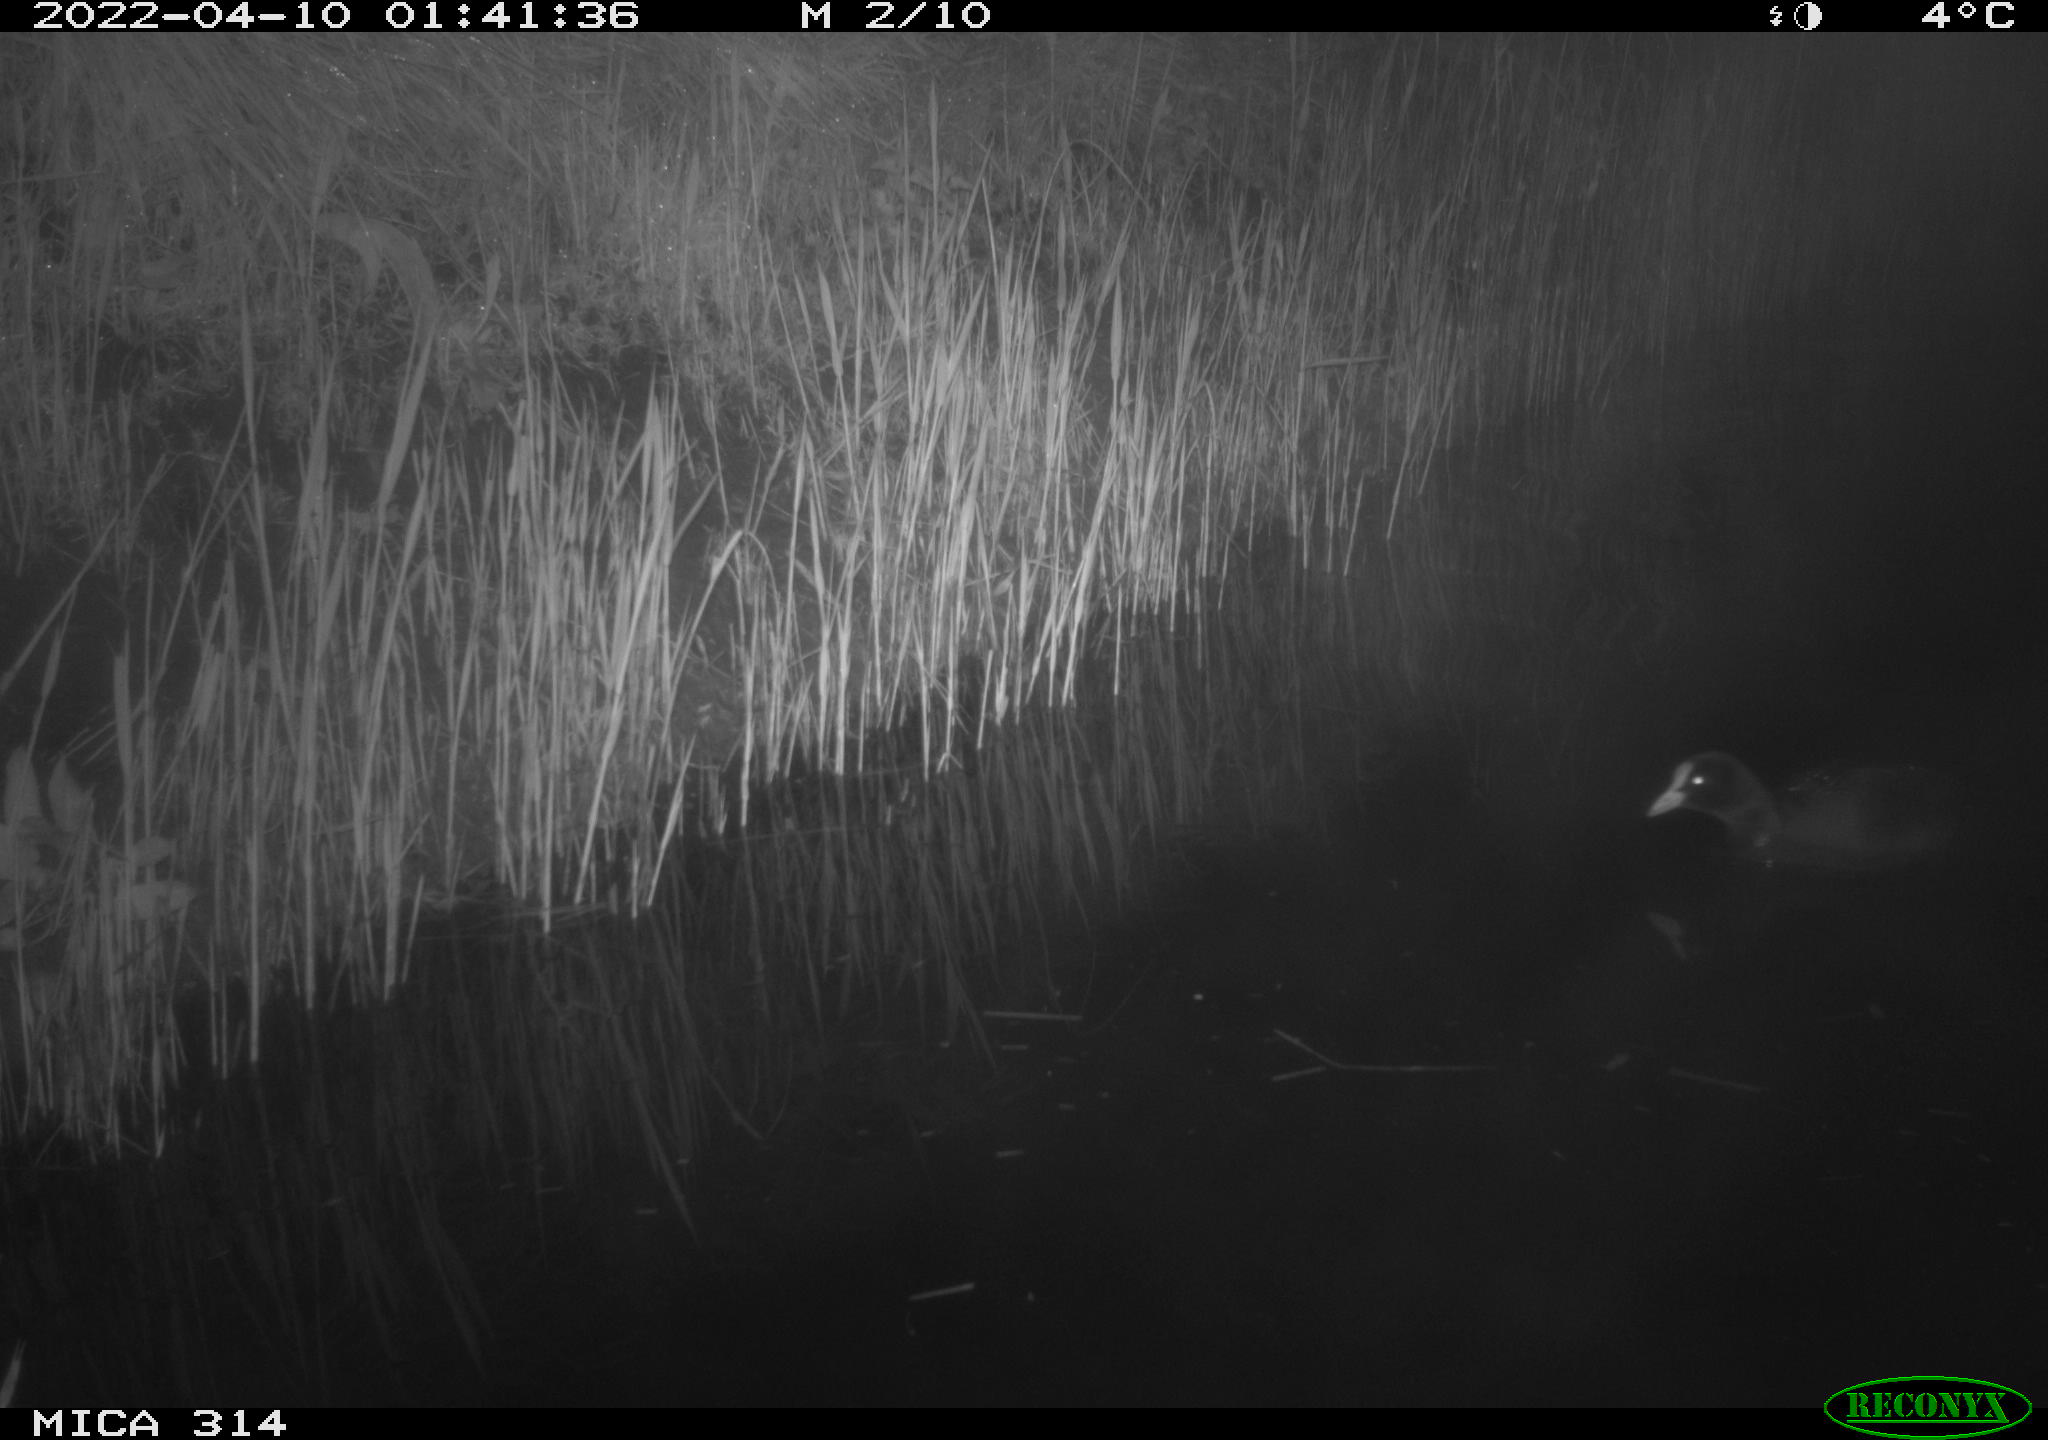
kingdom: Animalia
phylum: Chordata
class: Aves
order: Gruiformes
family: Rallidae
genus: Fulica
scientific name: Fulica atra
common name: Eurasian coot
